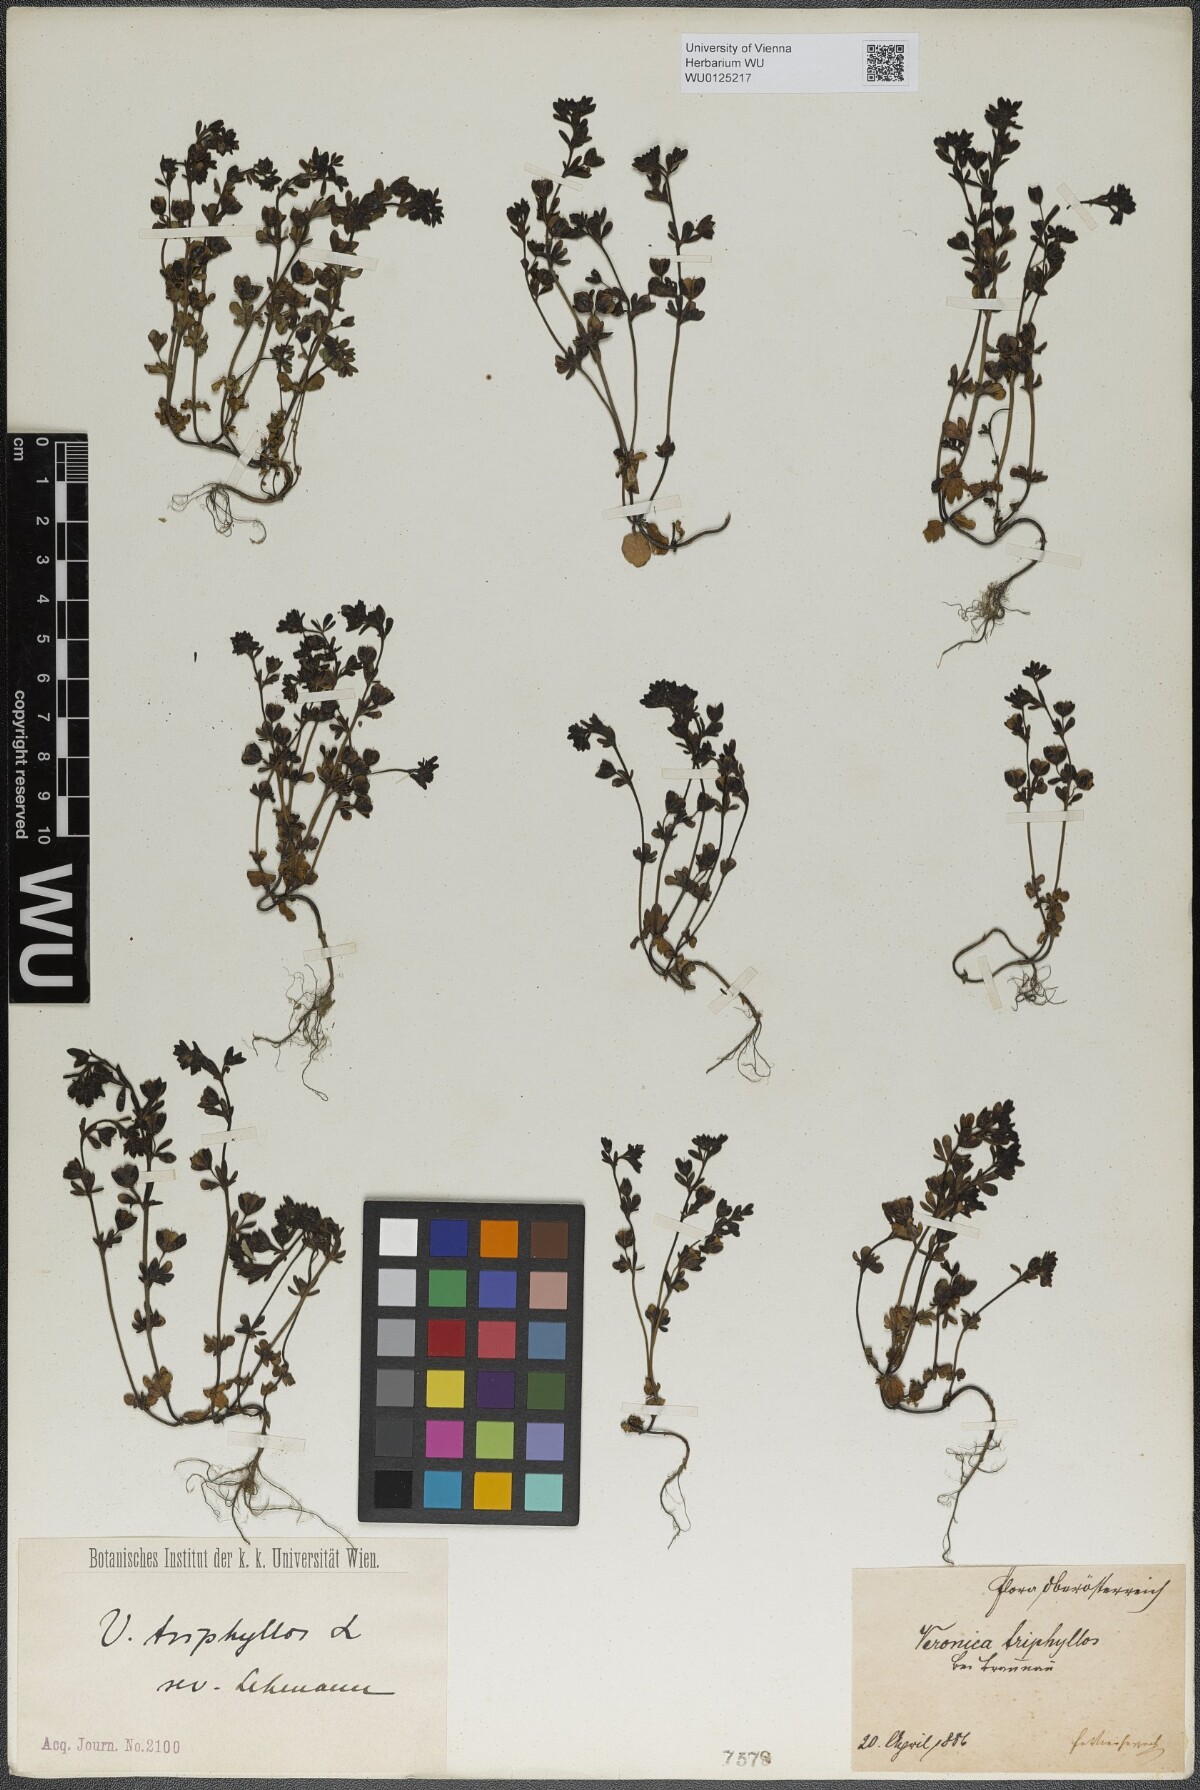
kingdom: Plantae
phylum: Tracheophyta
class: Magnoliopsida
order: Lamiales
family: Plantaginaceae
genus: Veronica
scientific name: Veronica triphyllos
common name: Fingered speedwell
